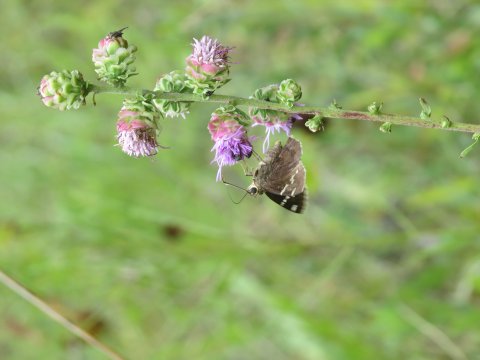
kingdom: Animalia
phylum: Arthropoda
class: Insecta
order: Lepidoptera
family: Hesperiidae
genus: Autochton
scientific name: Autochton
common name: Southern Cloudywing
